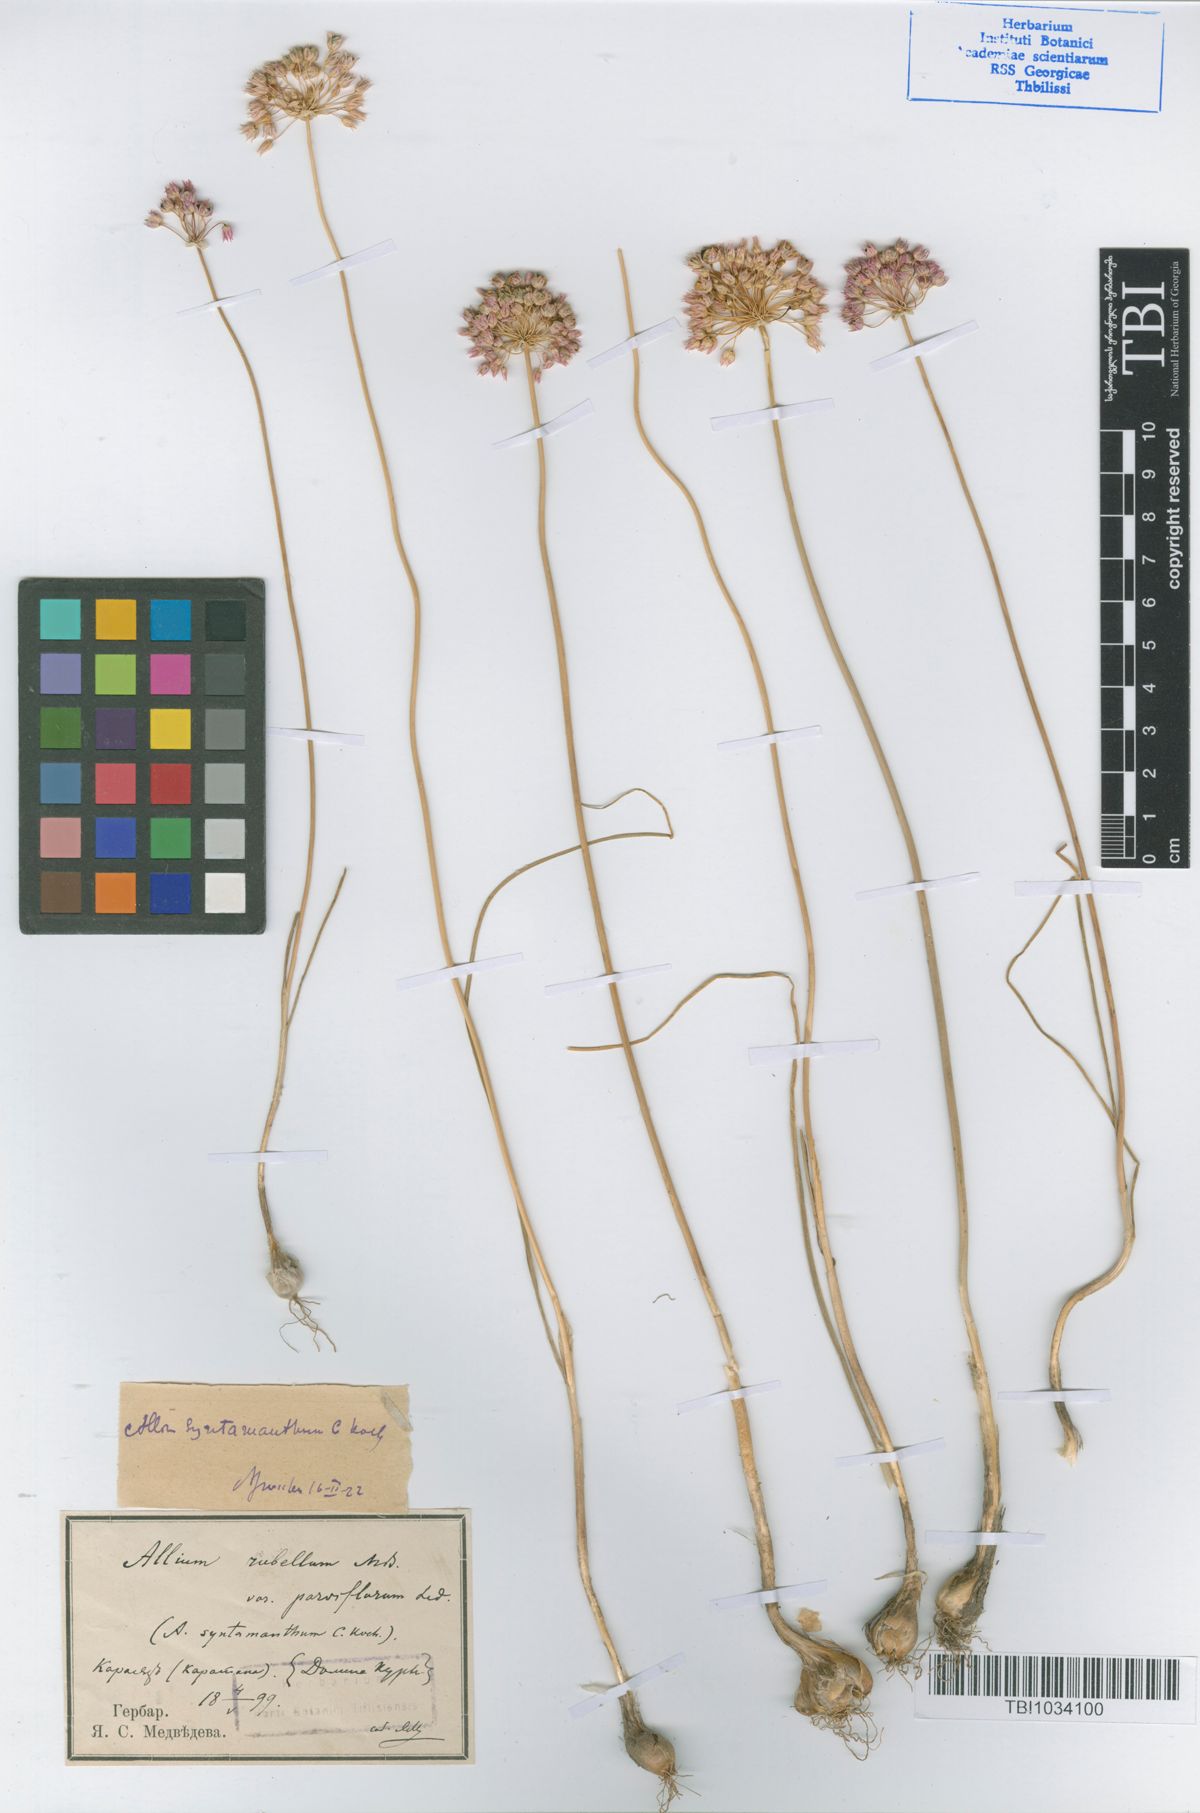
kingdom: Plantae
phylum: Tracheophyta
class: Liliopsida
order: Asparagales
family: Amaryllidaceae
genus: Allium
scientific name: Allium rubellum
